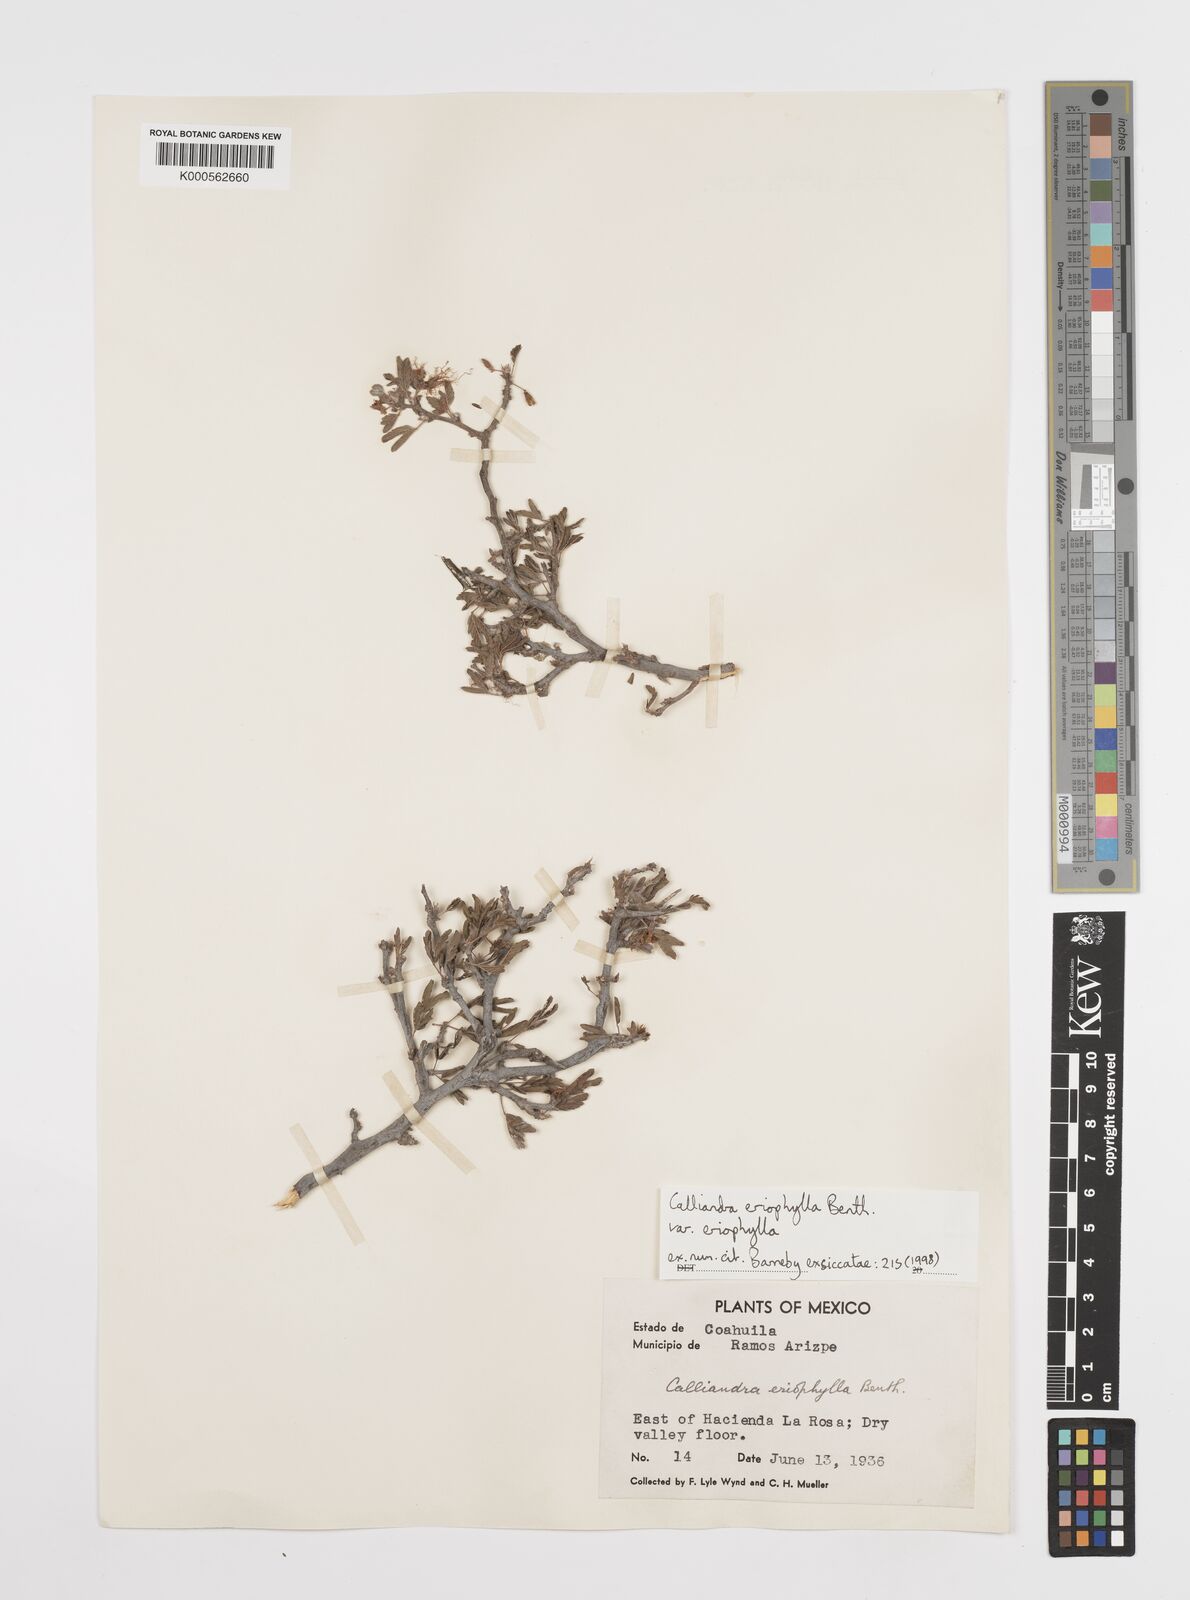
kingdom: Plantae
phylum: Tracheophyta
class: Magnoliopsida
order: Fabales
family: Fabaceae
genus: Calliandra
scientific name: Calliandra eriophylla
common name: Fairy-duster
